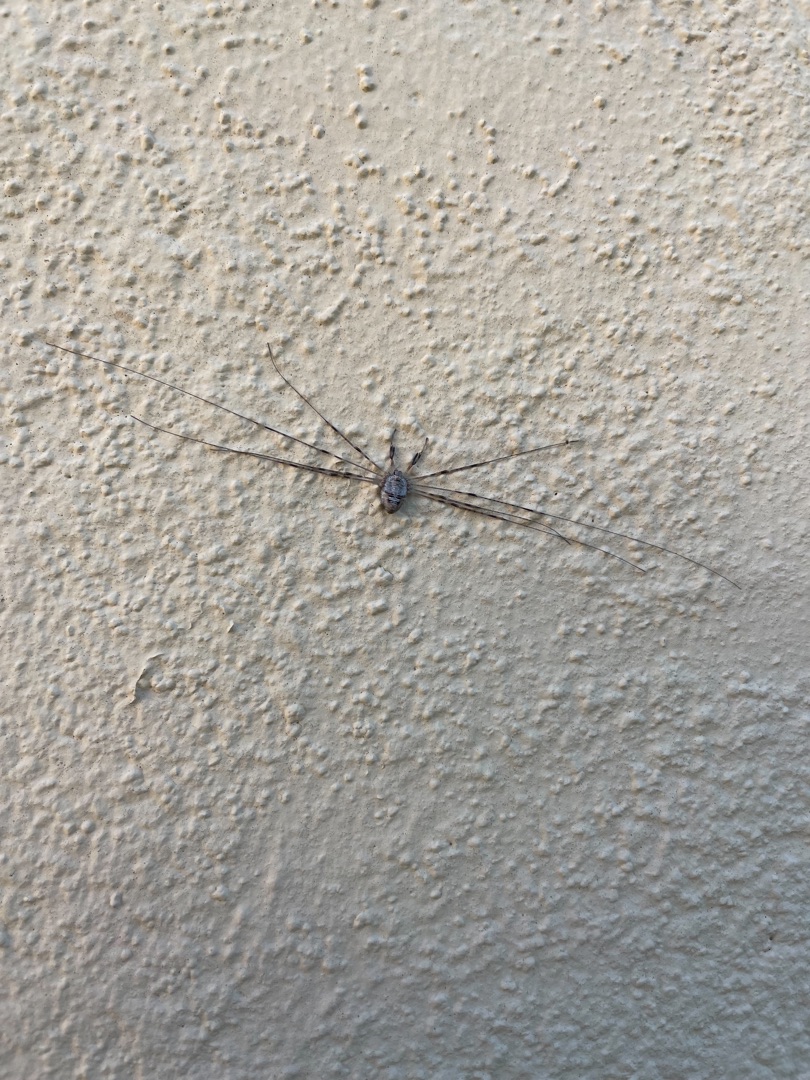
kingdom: Animalia
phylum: Arthropoda
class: Arachnida
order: Opiliones
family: Phalangiidae
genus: Dicranopalpus
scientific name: Dicranopalpus ramosus
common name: Gaffelmejer
